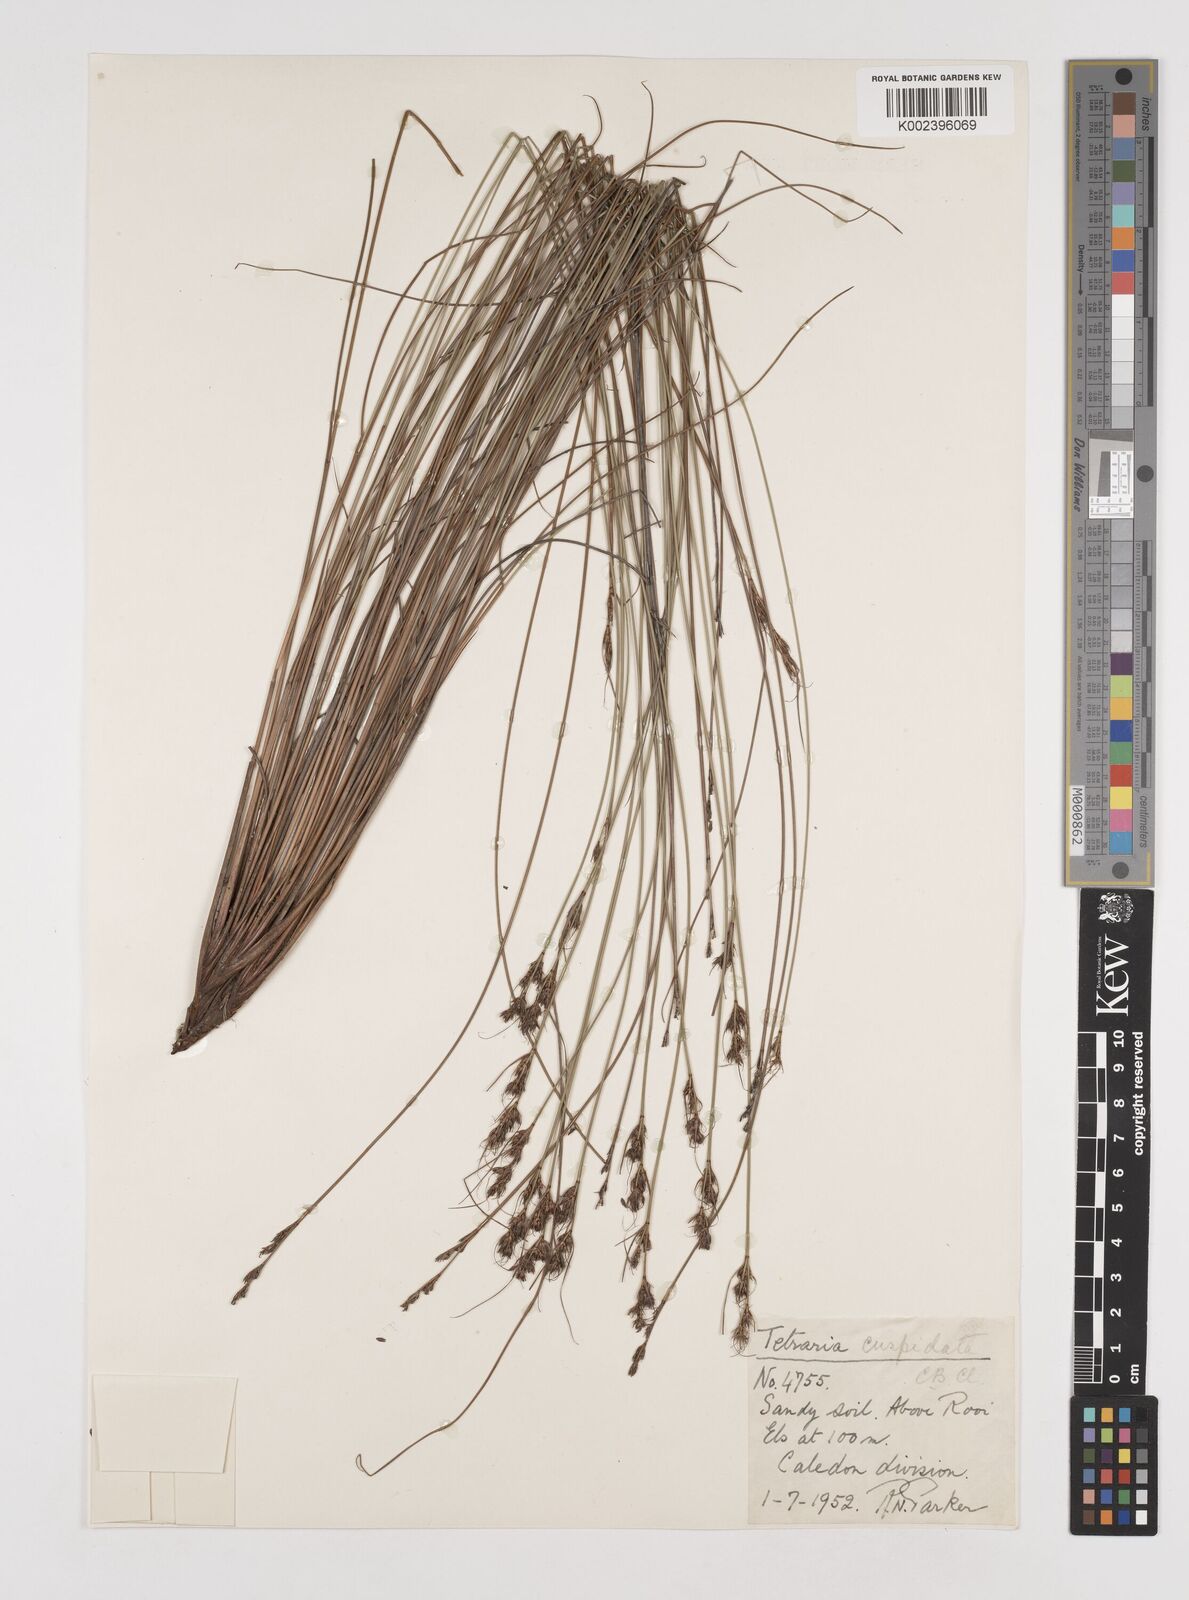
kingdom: Plantae
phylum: Tracheophyta
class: Liliopsida
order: Poales
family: Cyperaceae
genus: Schoenus
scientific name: Schoenus cuspidatus
